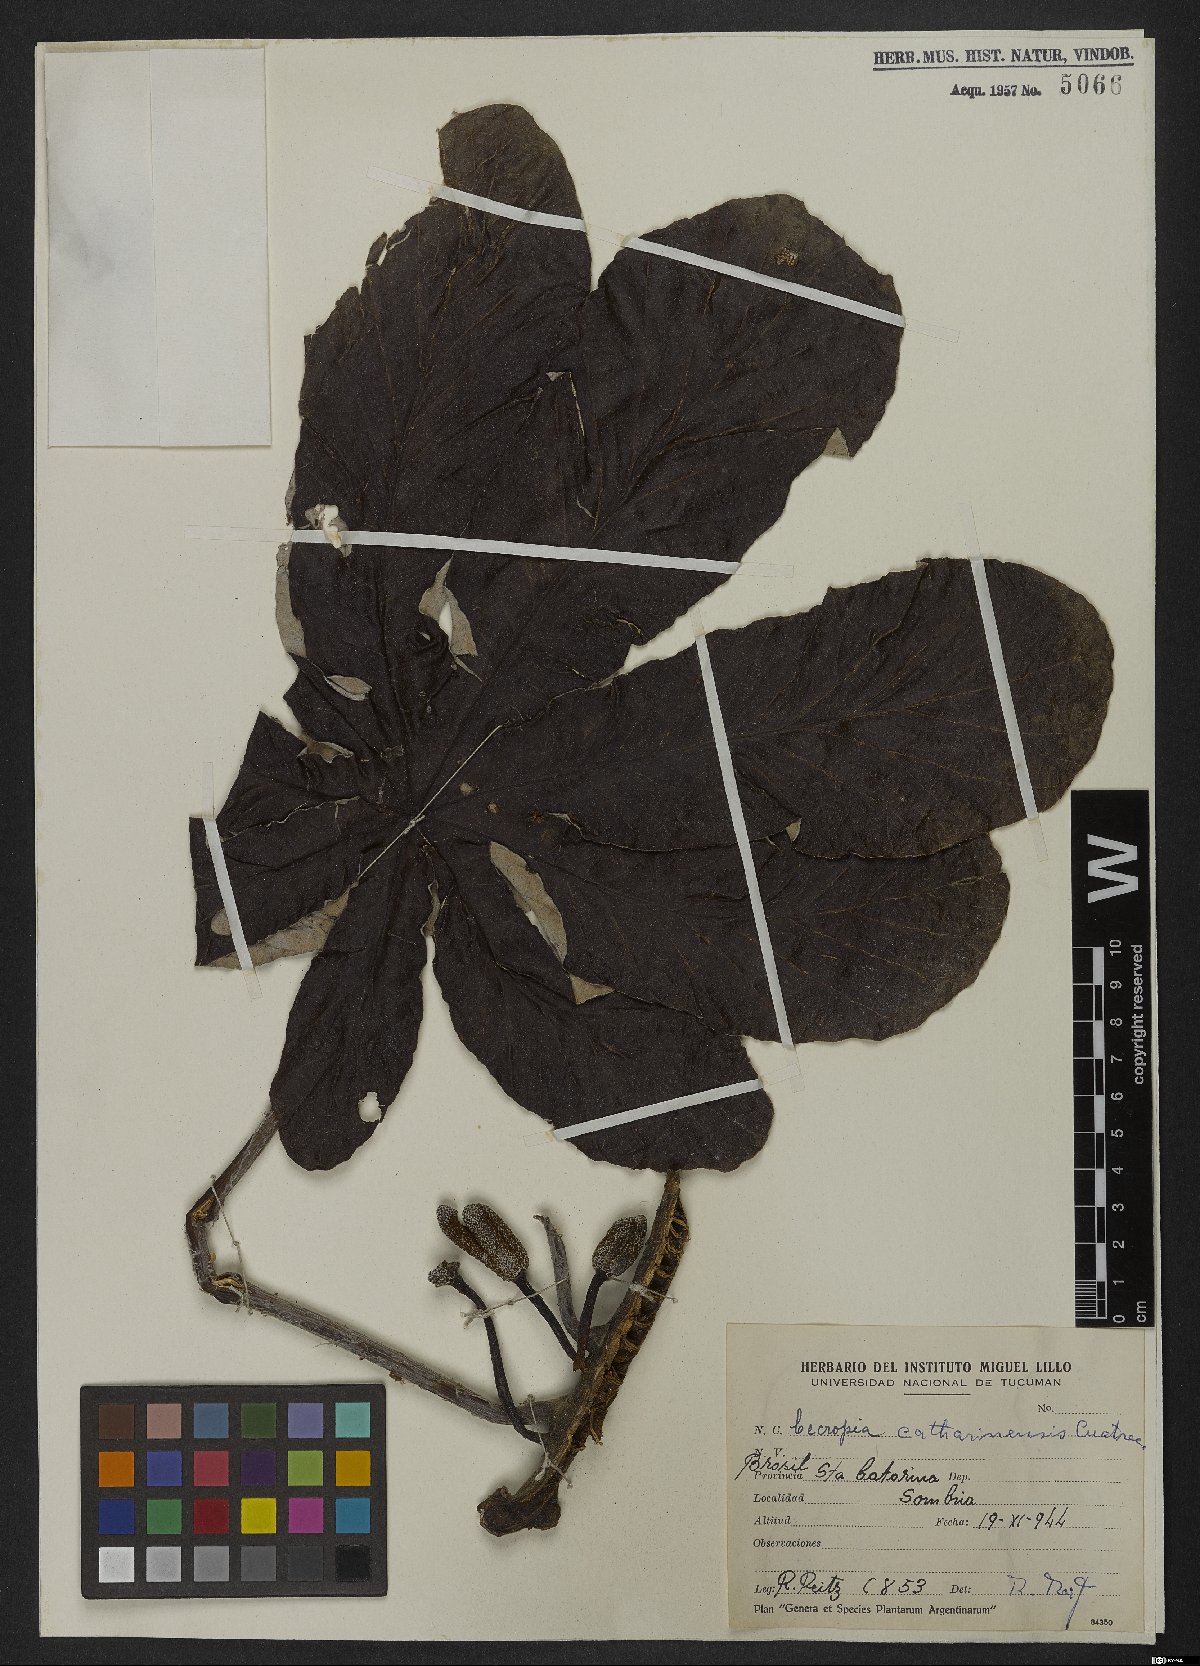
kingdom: Plantae
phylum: Tracheophyta
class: Magnoliopsida
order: Rosales
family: Urticaceae
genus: Cecropia
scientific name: Cecropia distachya
